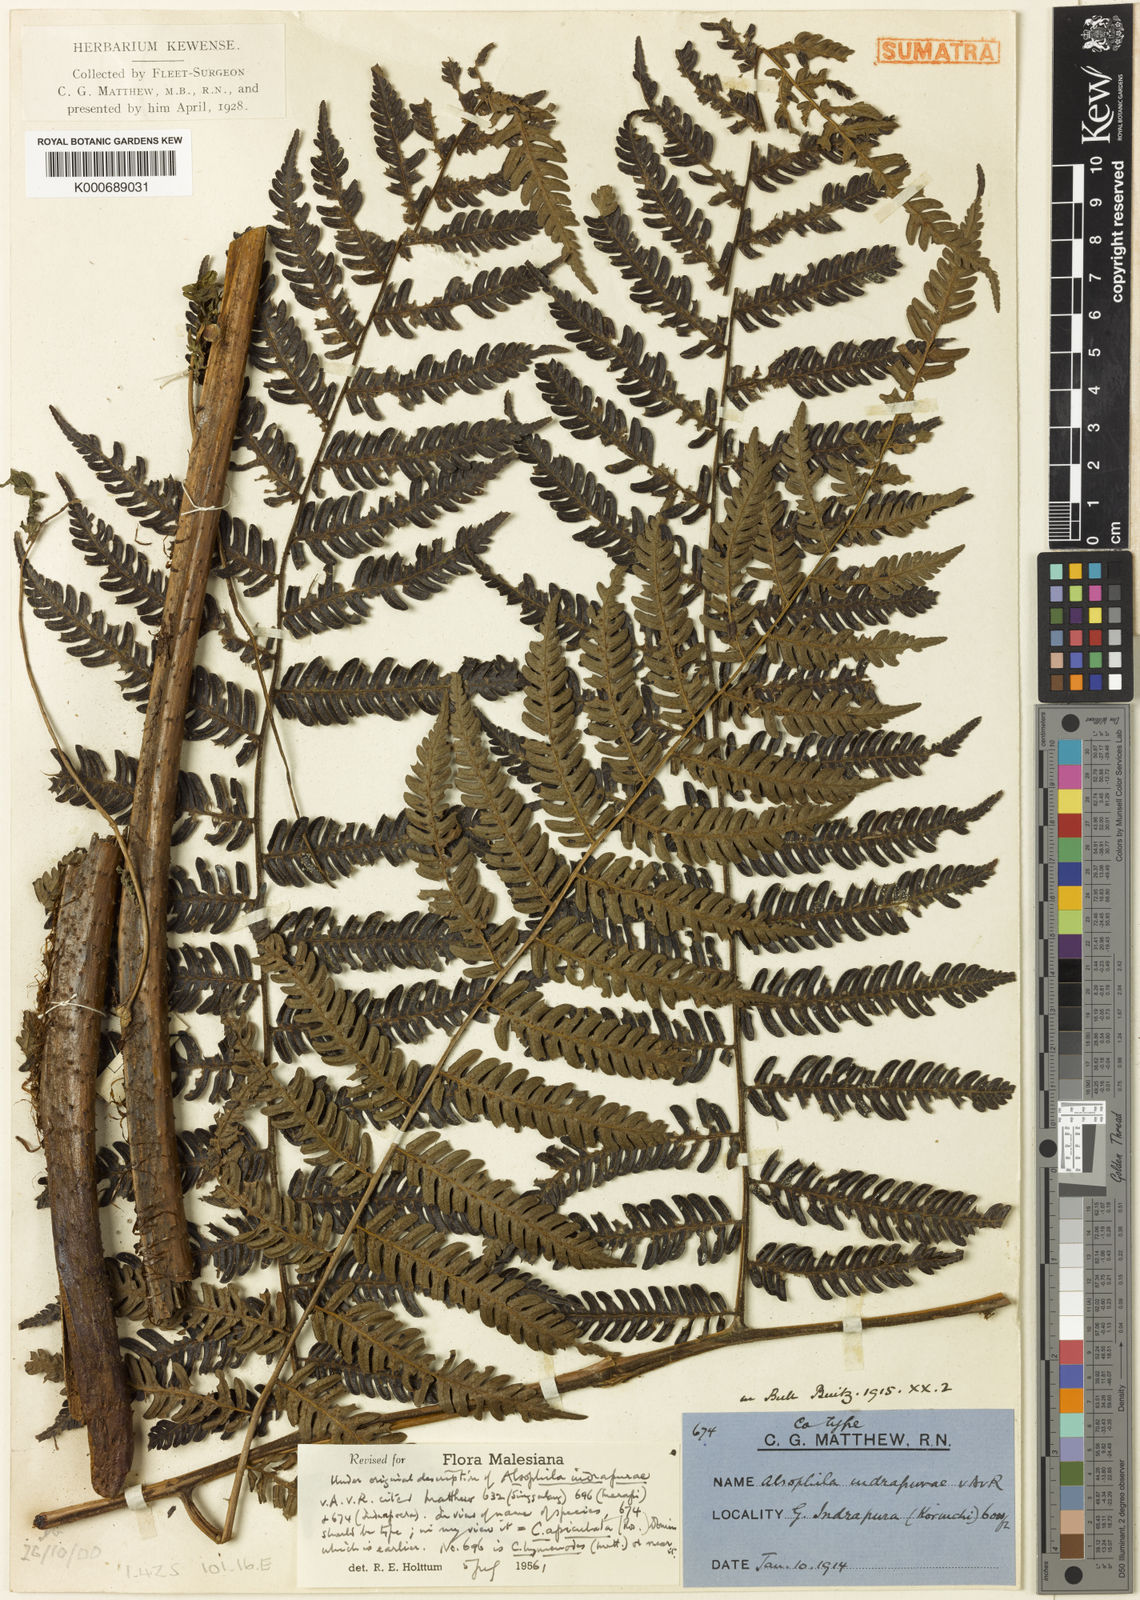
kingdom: Plantae
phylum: Tracheophyta
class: Polypodiopsida
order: Cyatheales
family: Cyatheaceae
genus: Alsophila
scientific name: Alsophila apiculata
